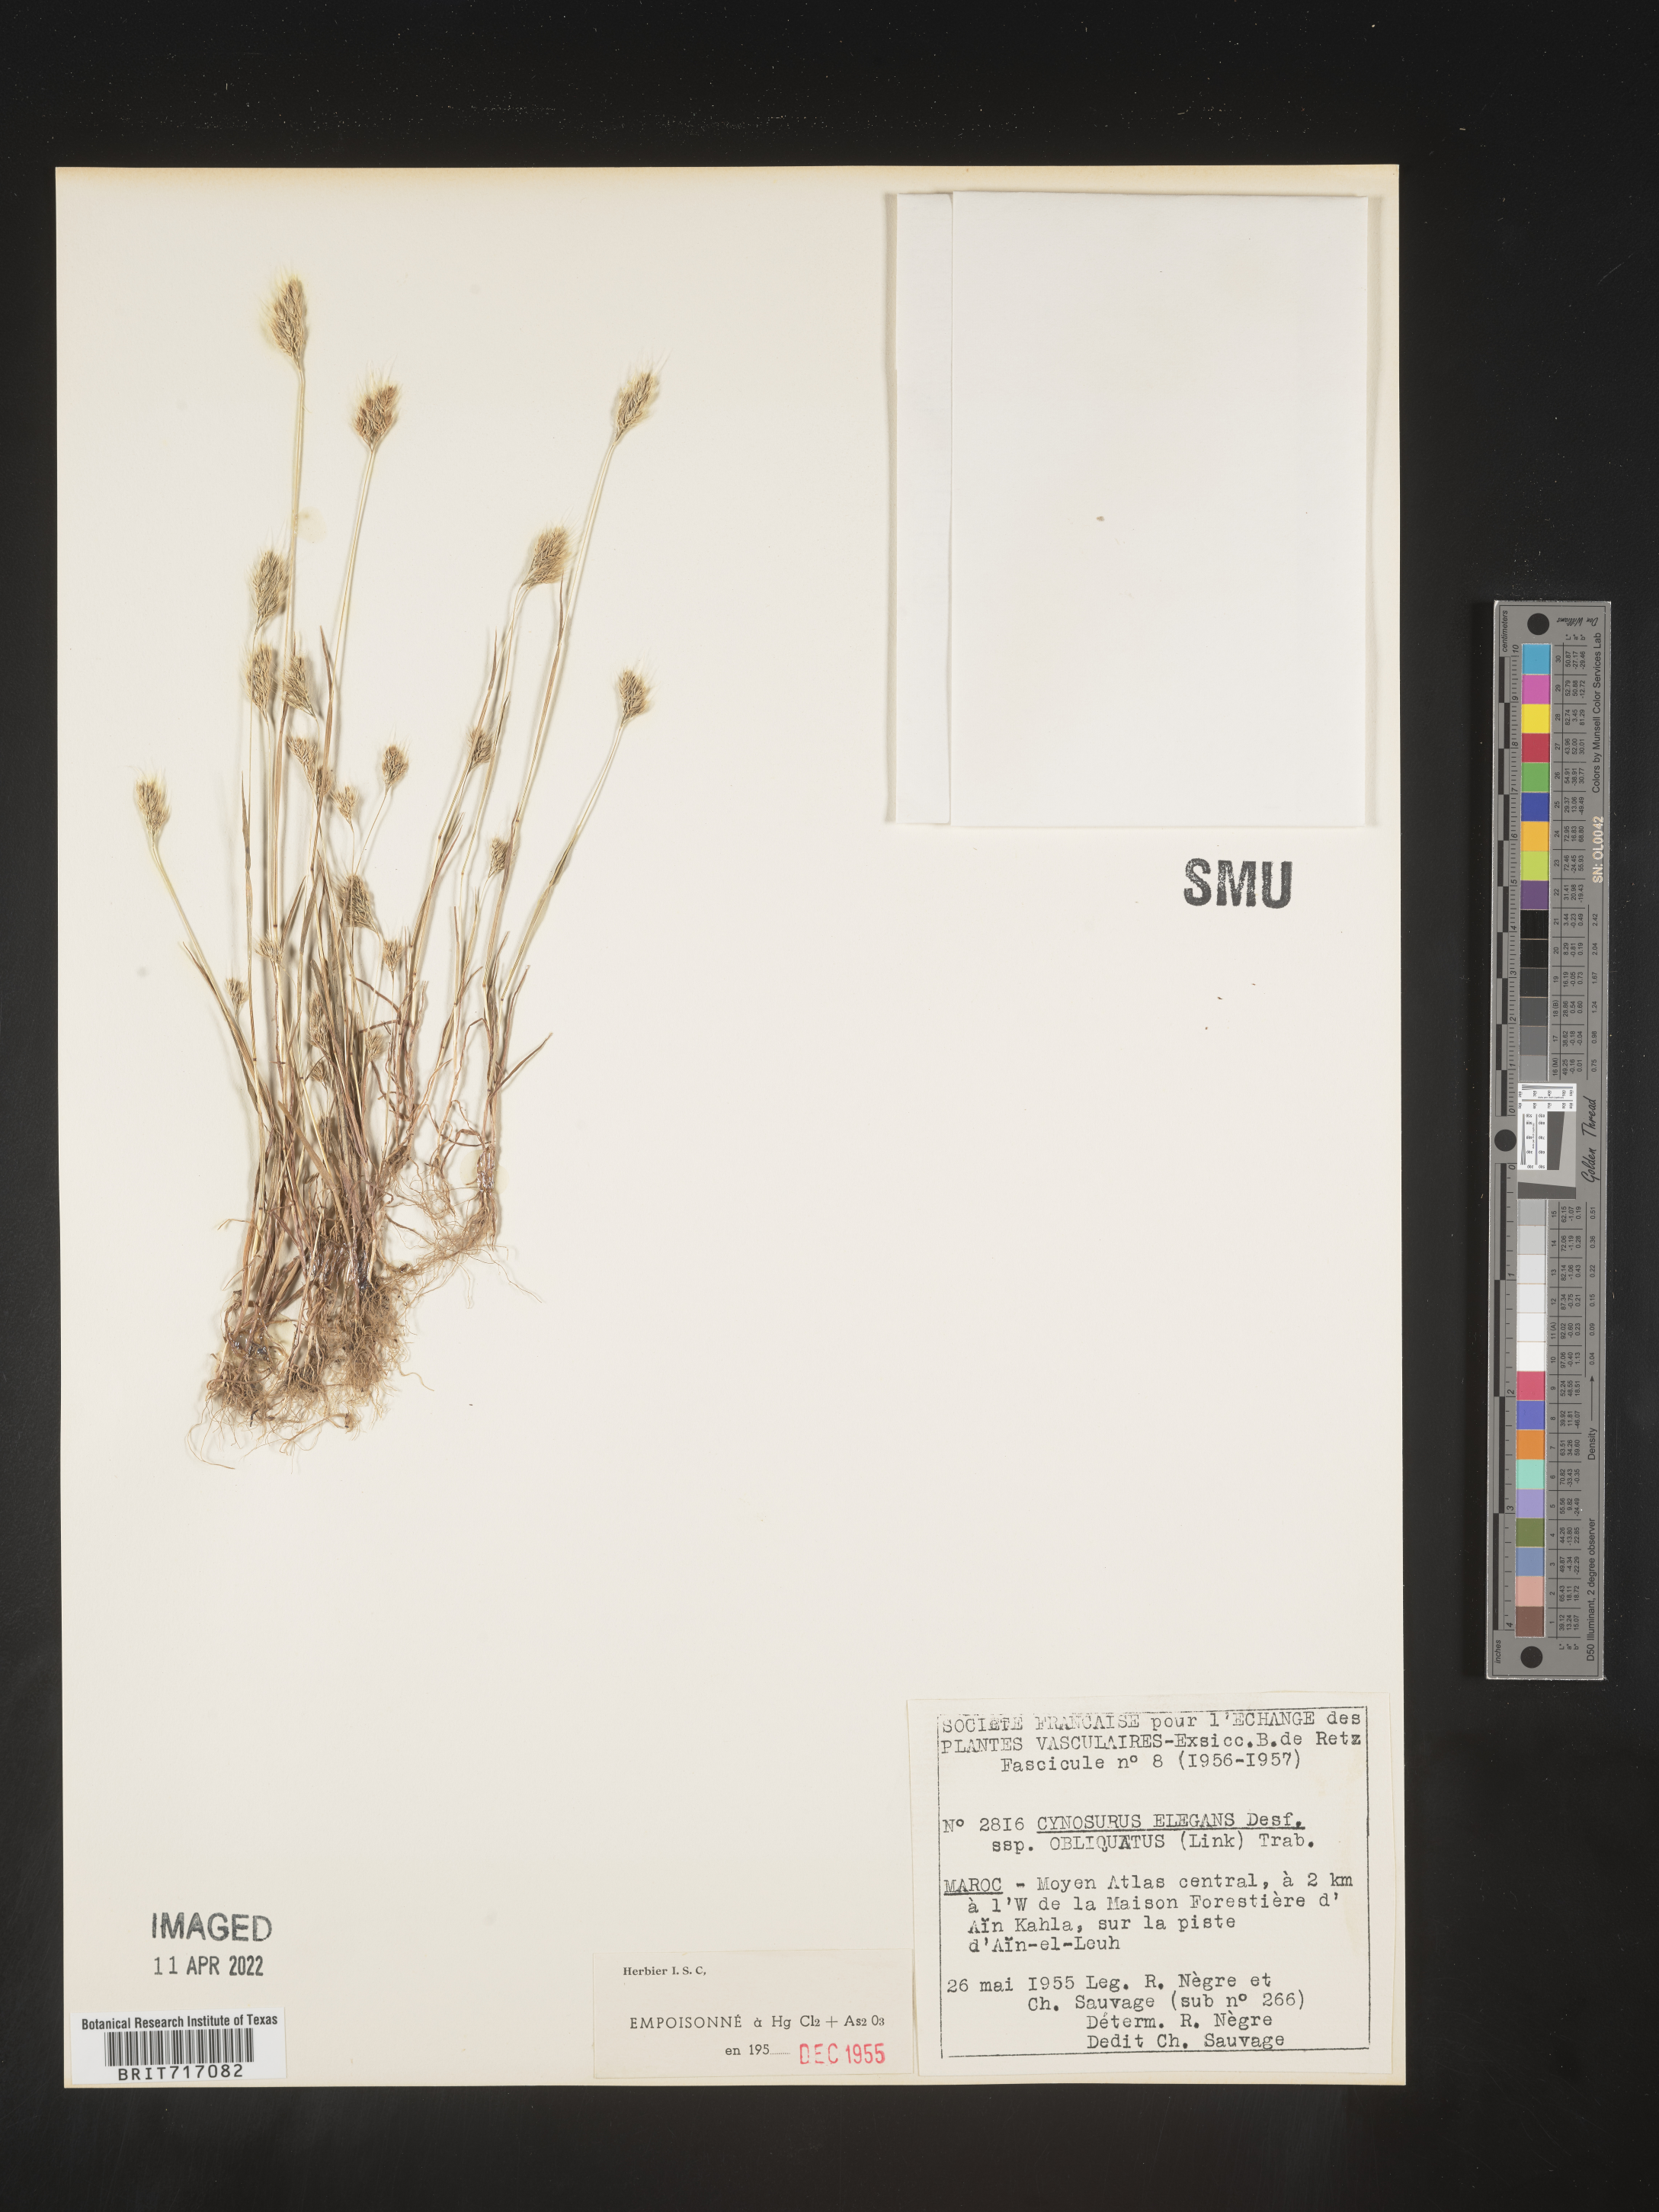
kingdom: Plantae
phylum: Tracheophyta
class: Liliopsida
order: Poales
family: Poaceae
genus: Cynosurus
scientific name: Cynosurus
